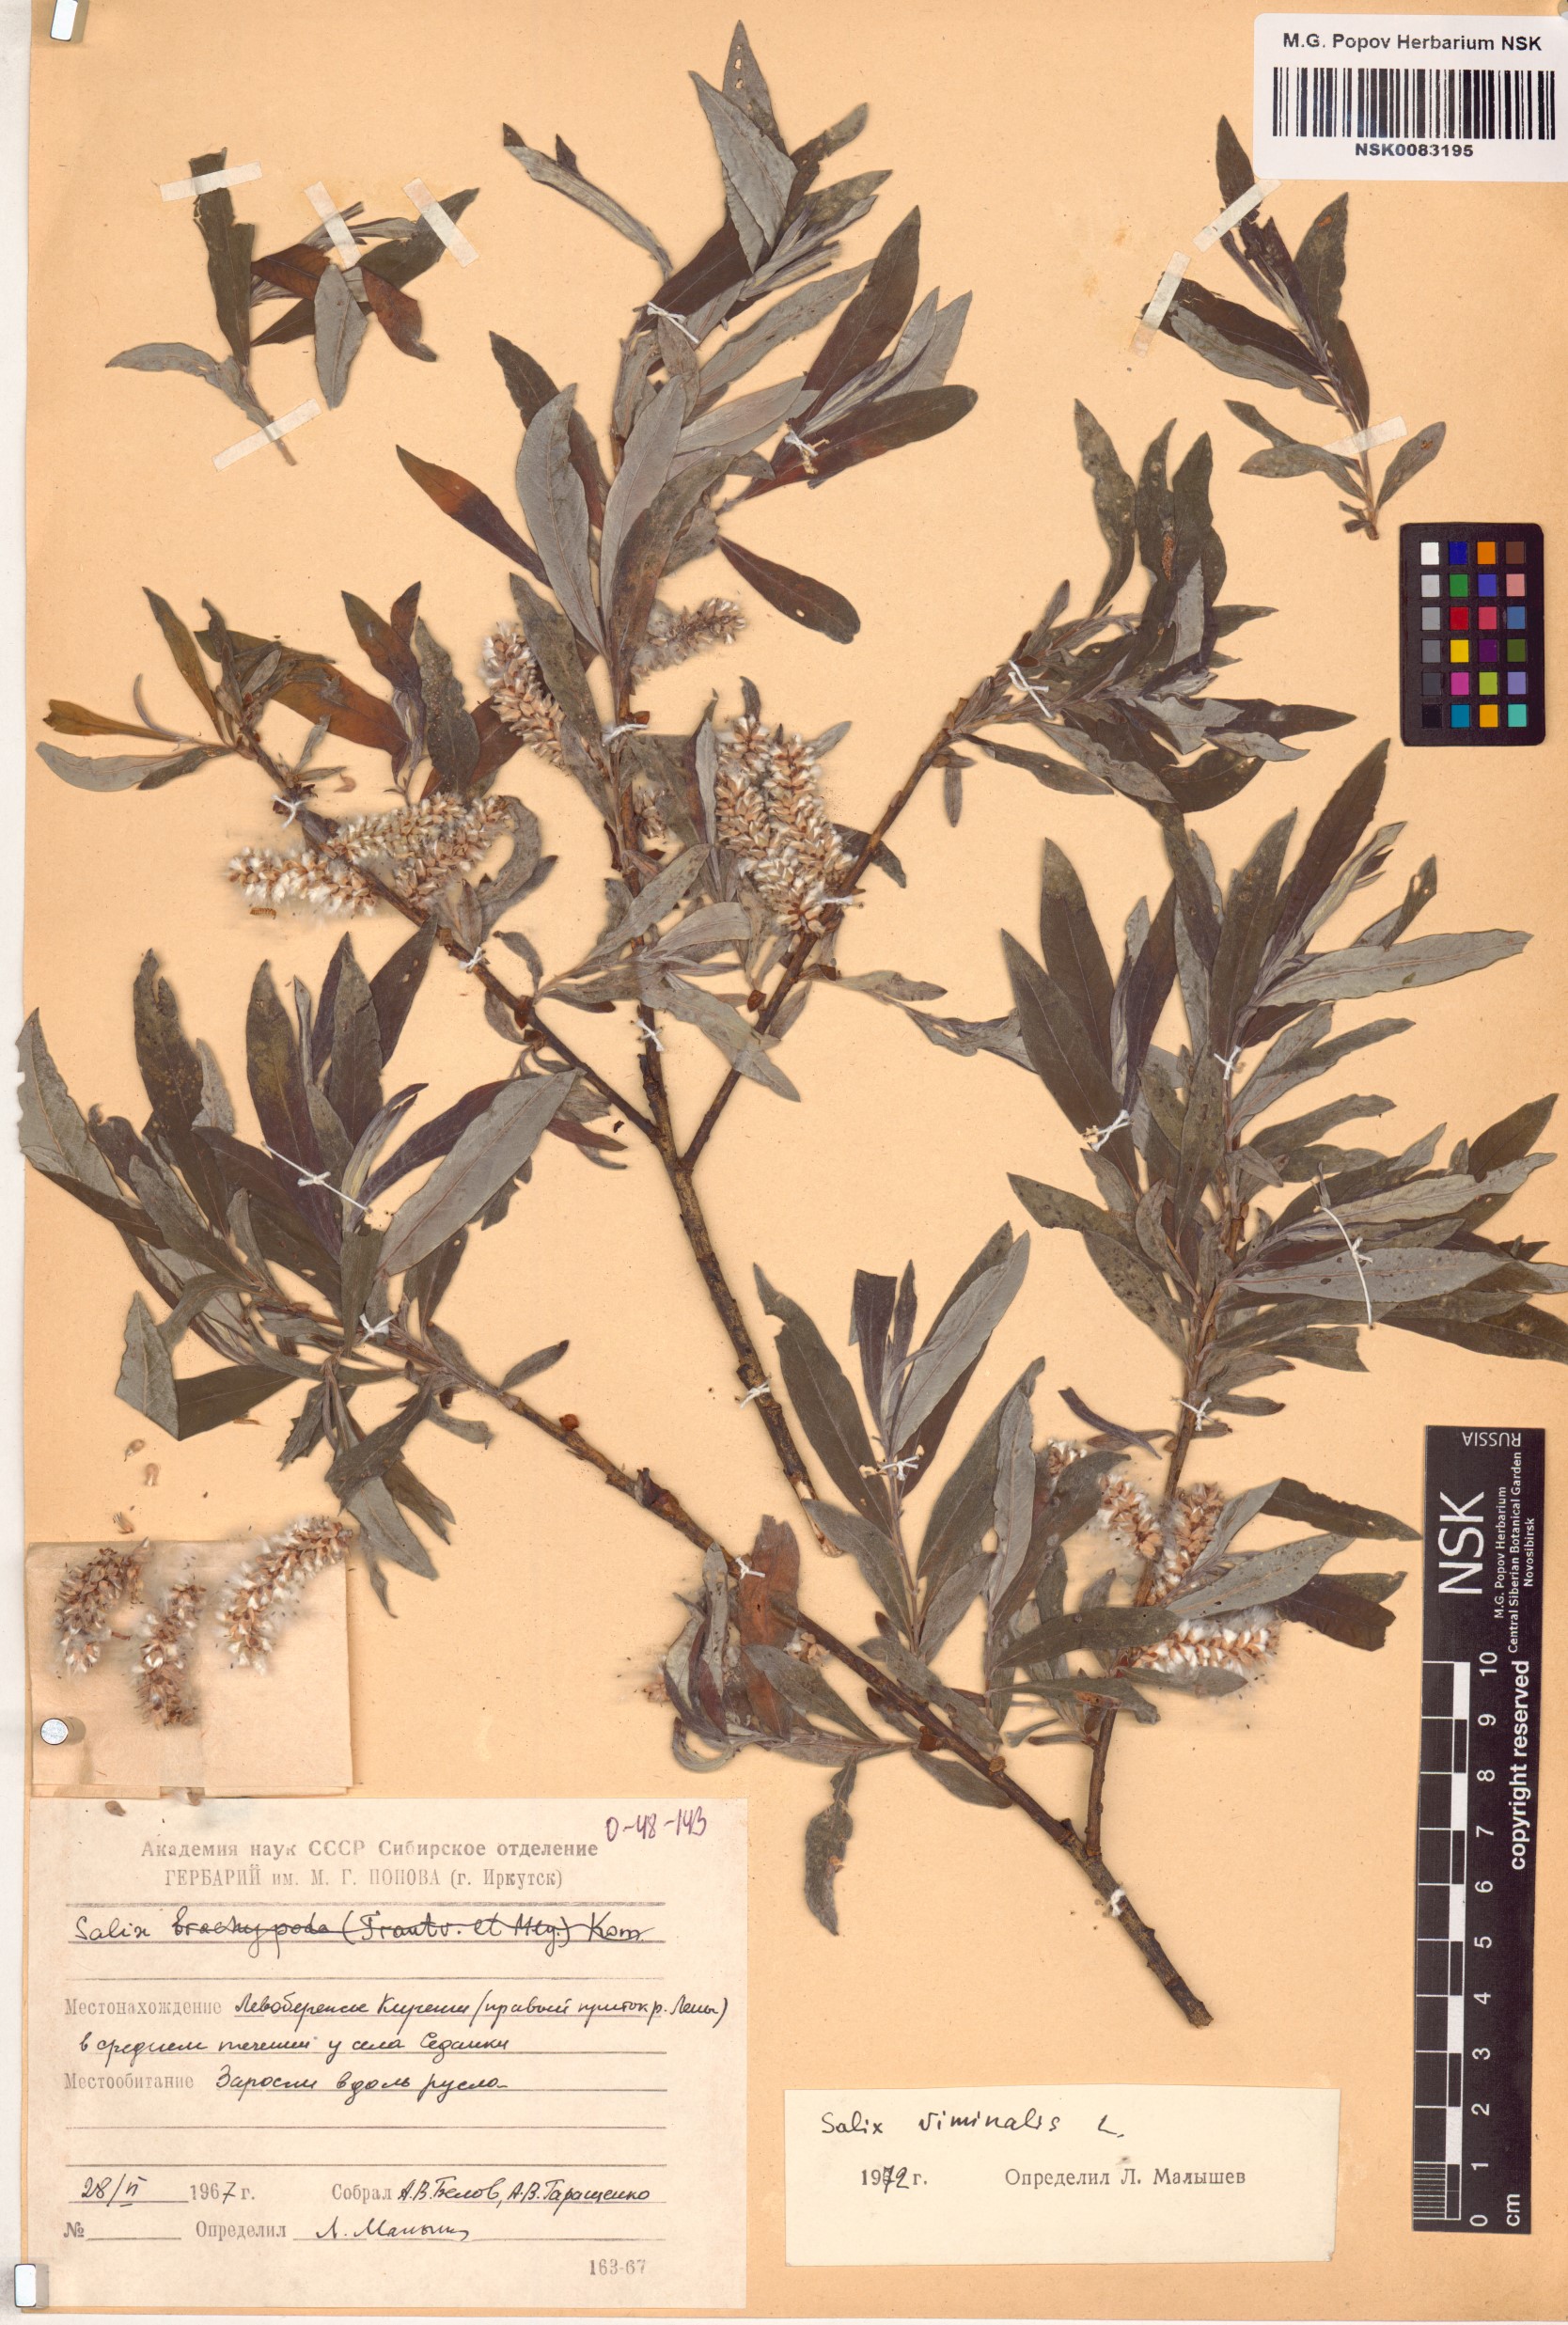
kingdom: Plantae
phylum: Tracheophyta
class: Magnoliopsida
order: Malpighiales
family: Salicaceae
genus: Salix
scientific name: Salix viminalis
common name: Osier
